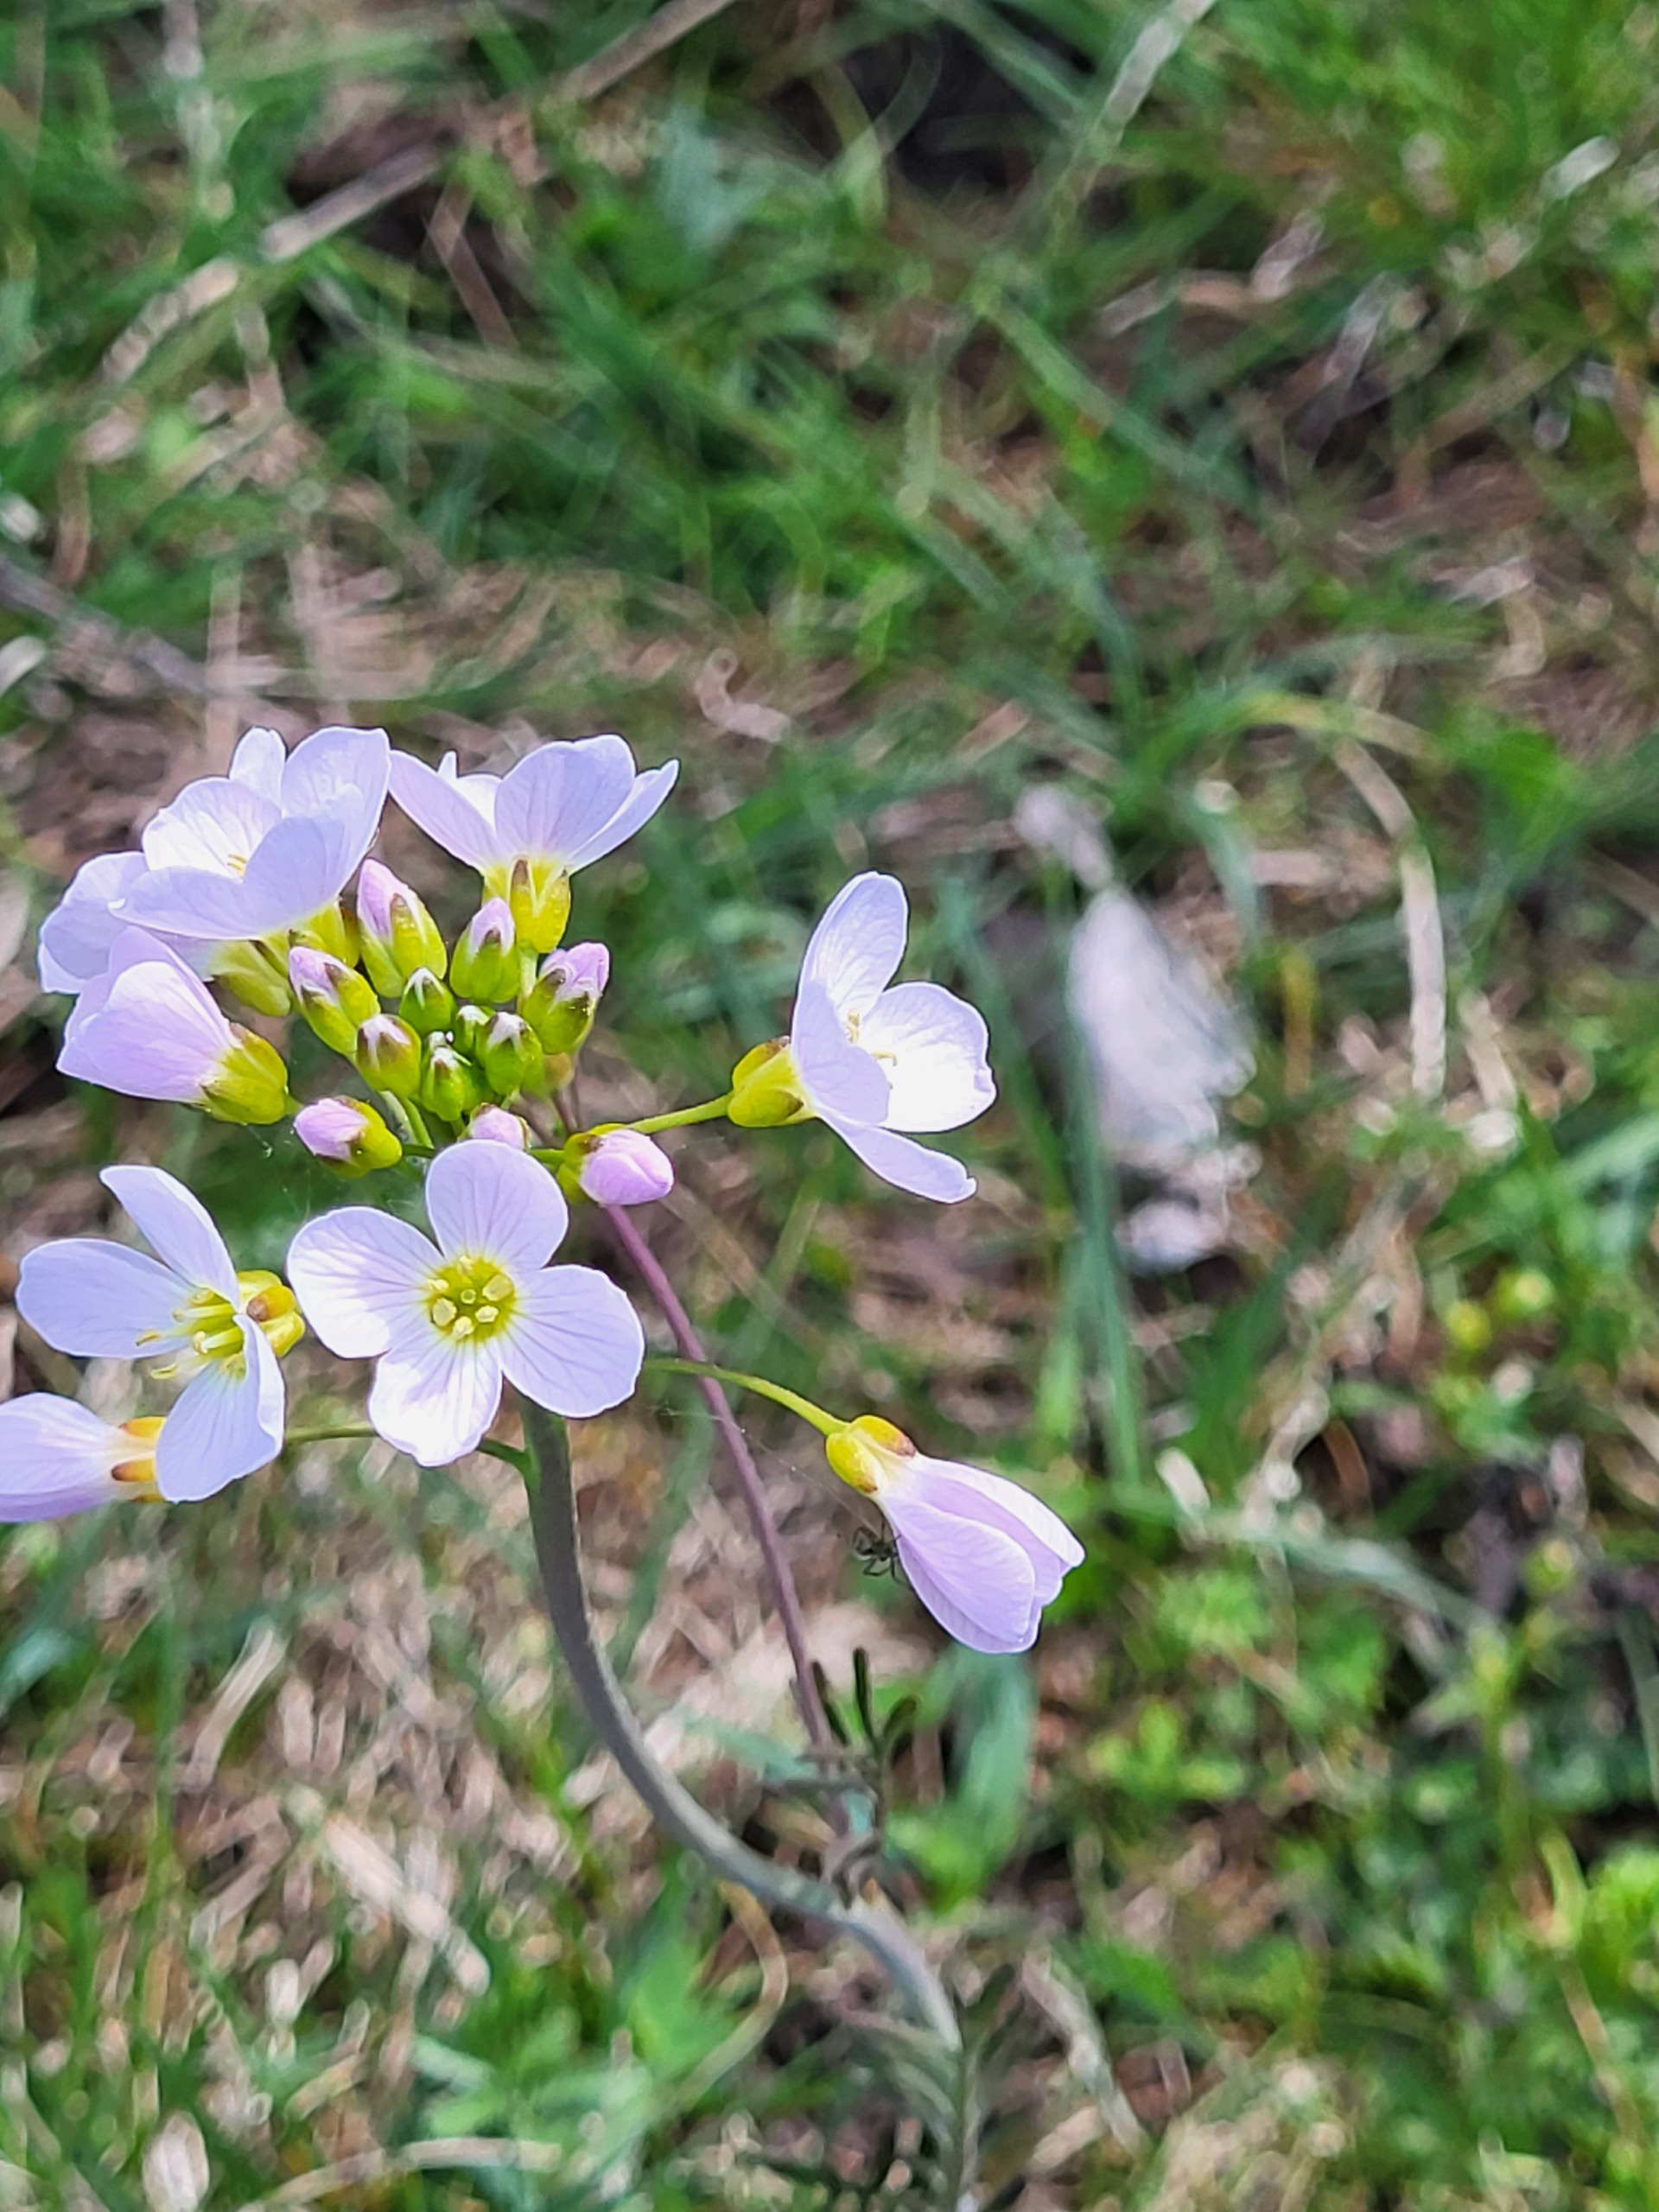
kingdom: Plantae
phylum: Tracheophyta
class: Magnoliopsida
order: Brassicales
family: Brassicaceae
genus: Cardamine
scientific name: Cardamine pratensis
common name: Engkarse
